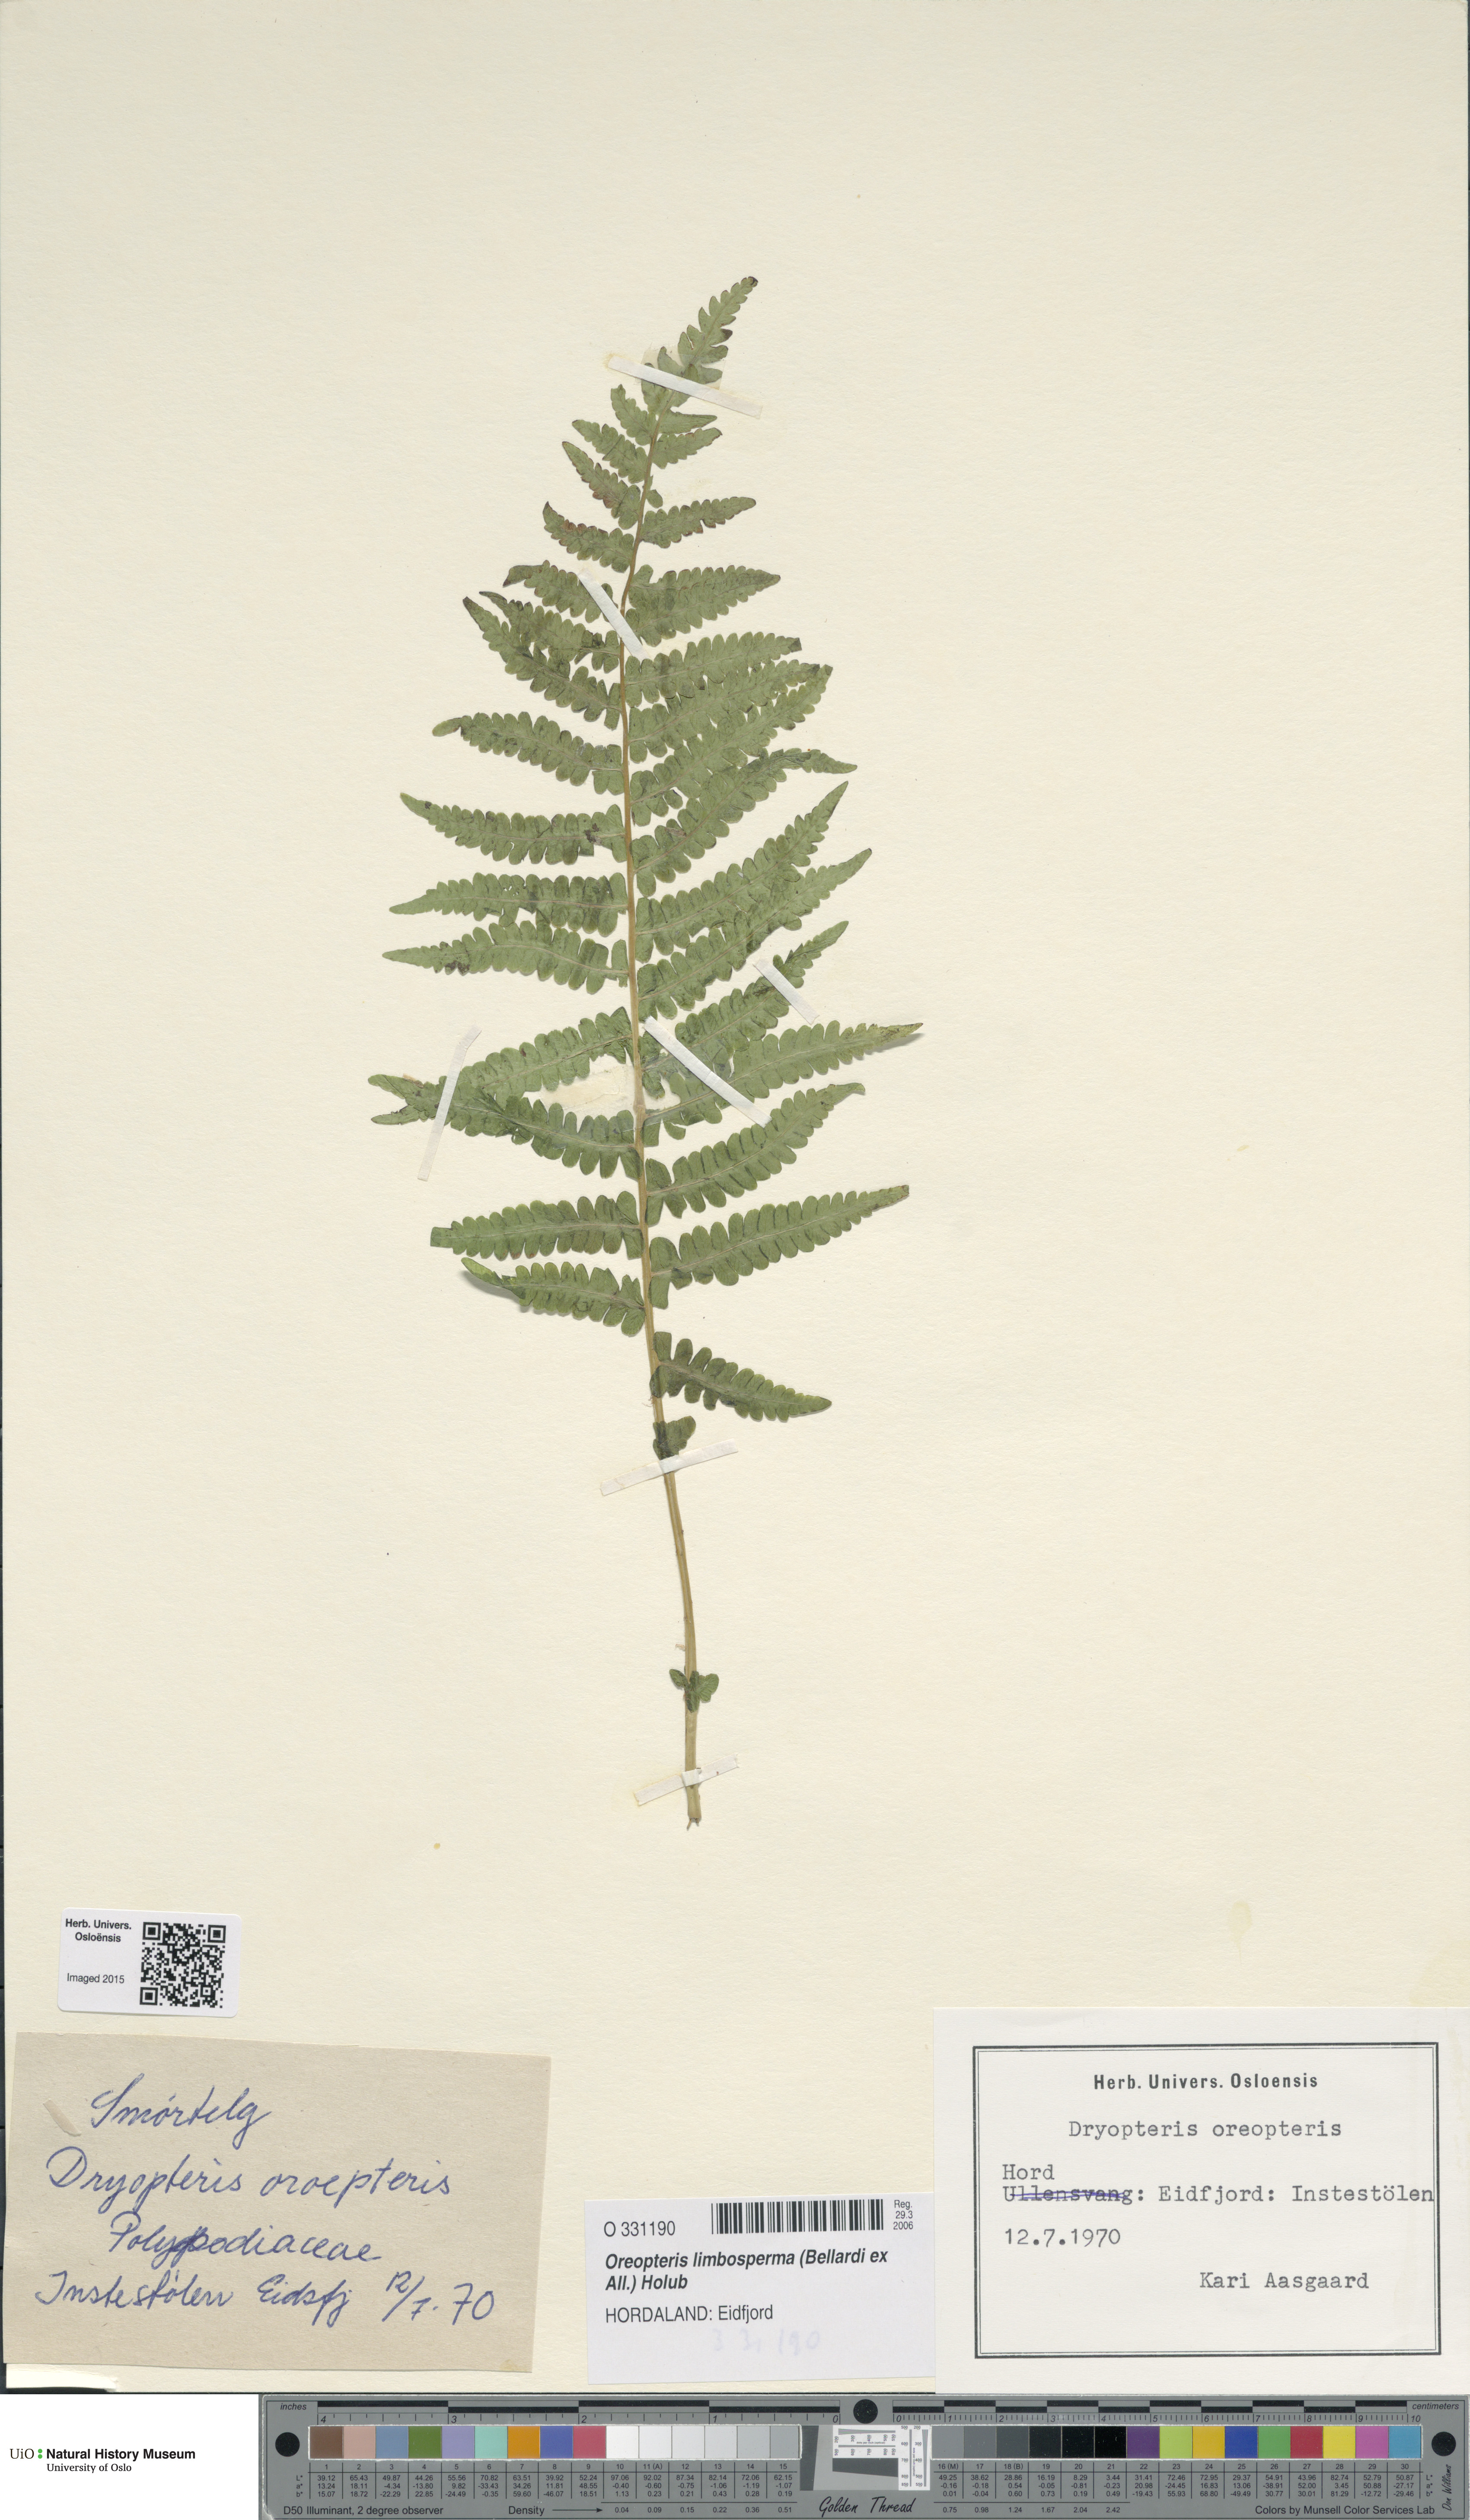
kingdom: Plantae
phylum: Tracheophyta
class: Polypodiopsida
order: Polypodiales
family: Thelypteridaceae
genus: Oreopteris
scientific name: Oreopteris limbosperma
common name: Lemon-scented fern
